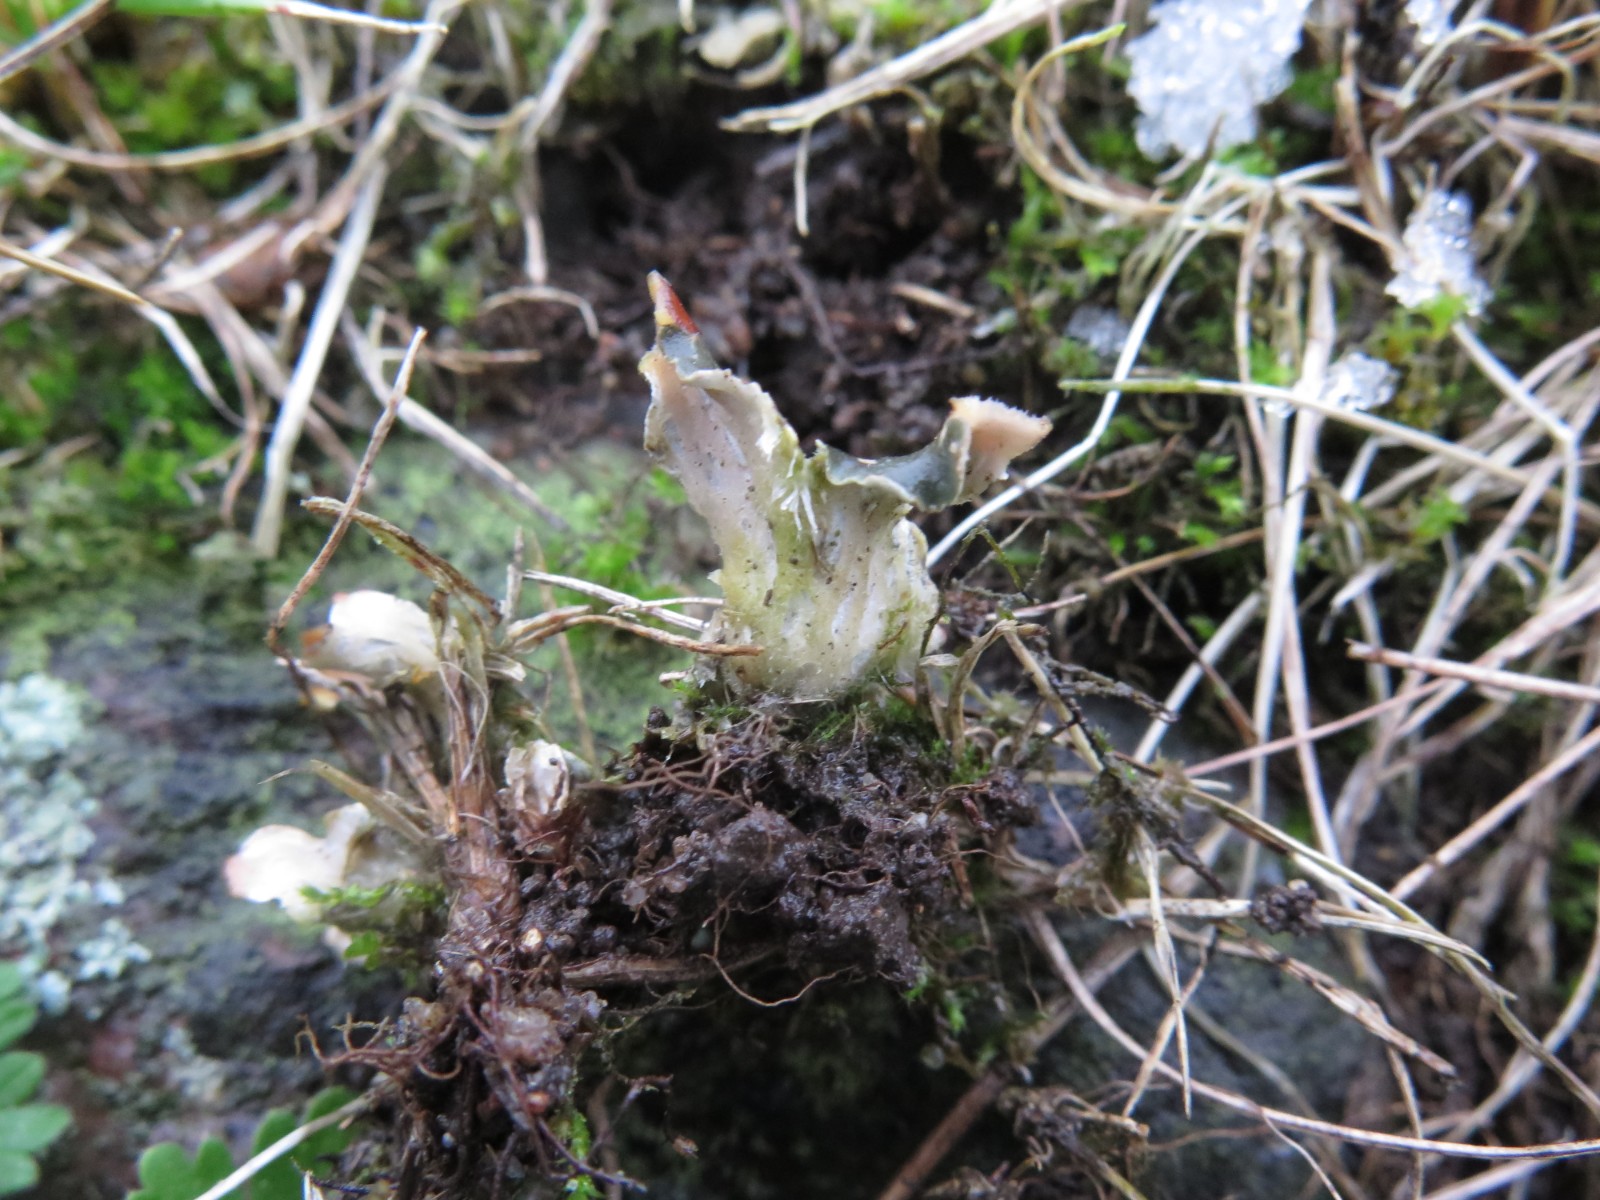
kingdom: Fungi
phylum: Ascomycota
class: Lecanoromycetes
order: Peltigerales
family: Peltigeraceae
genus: Peltigera
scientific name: Peltigera didactyla
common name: liden skjoldlav
